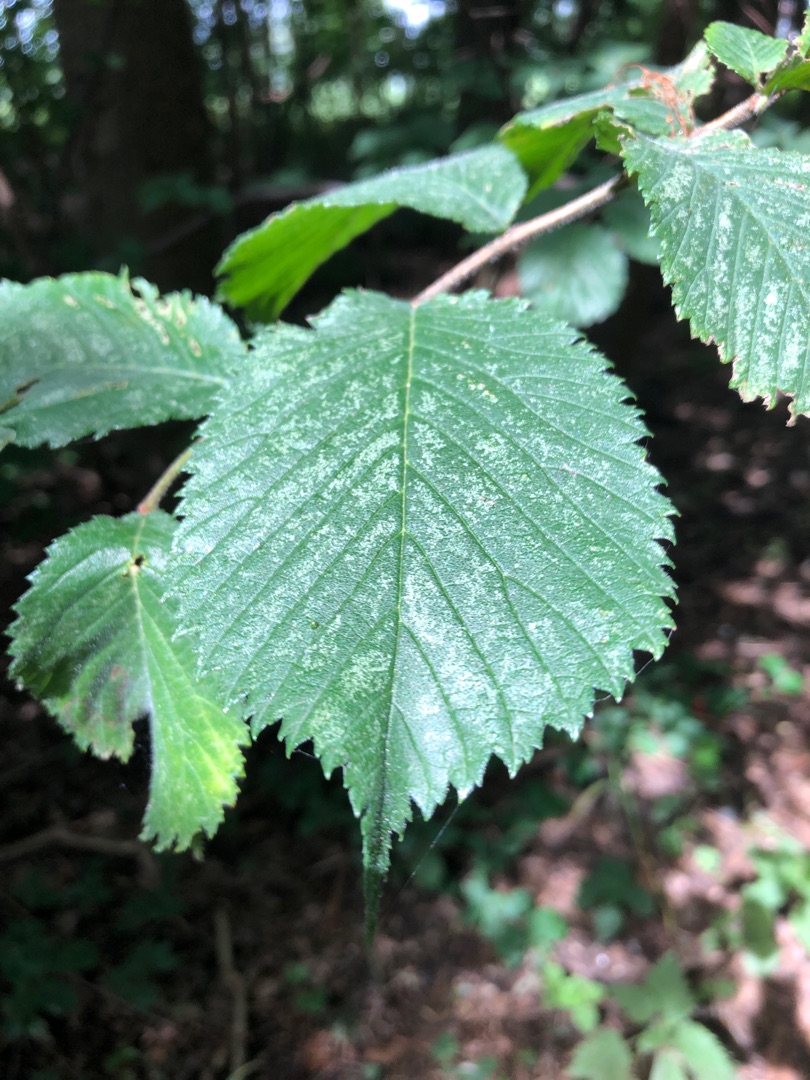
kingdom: Plantae
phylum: Tracheophyta
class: Magnoliopsida
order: Rosales
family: Ulmaceae
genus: Ulmus
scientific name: Ulmus glabra
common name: Skov-elm/storbladet elm
